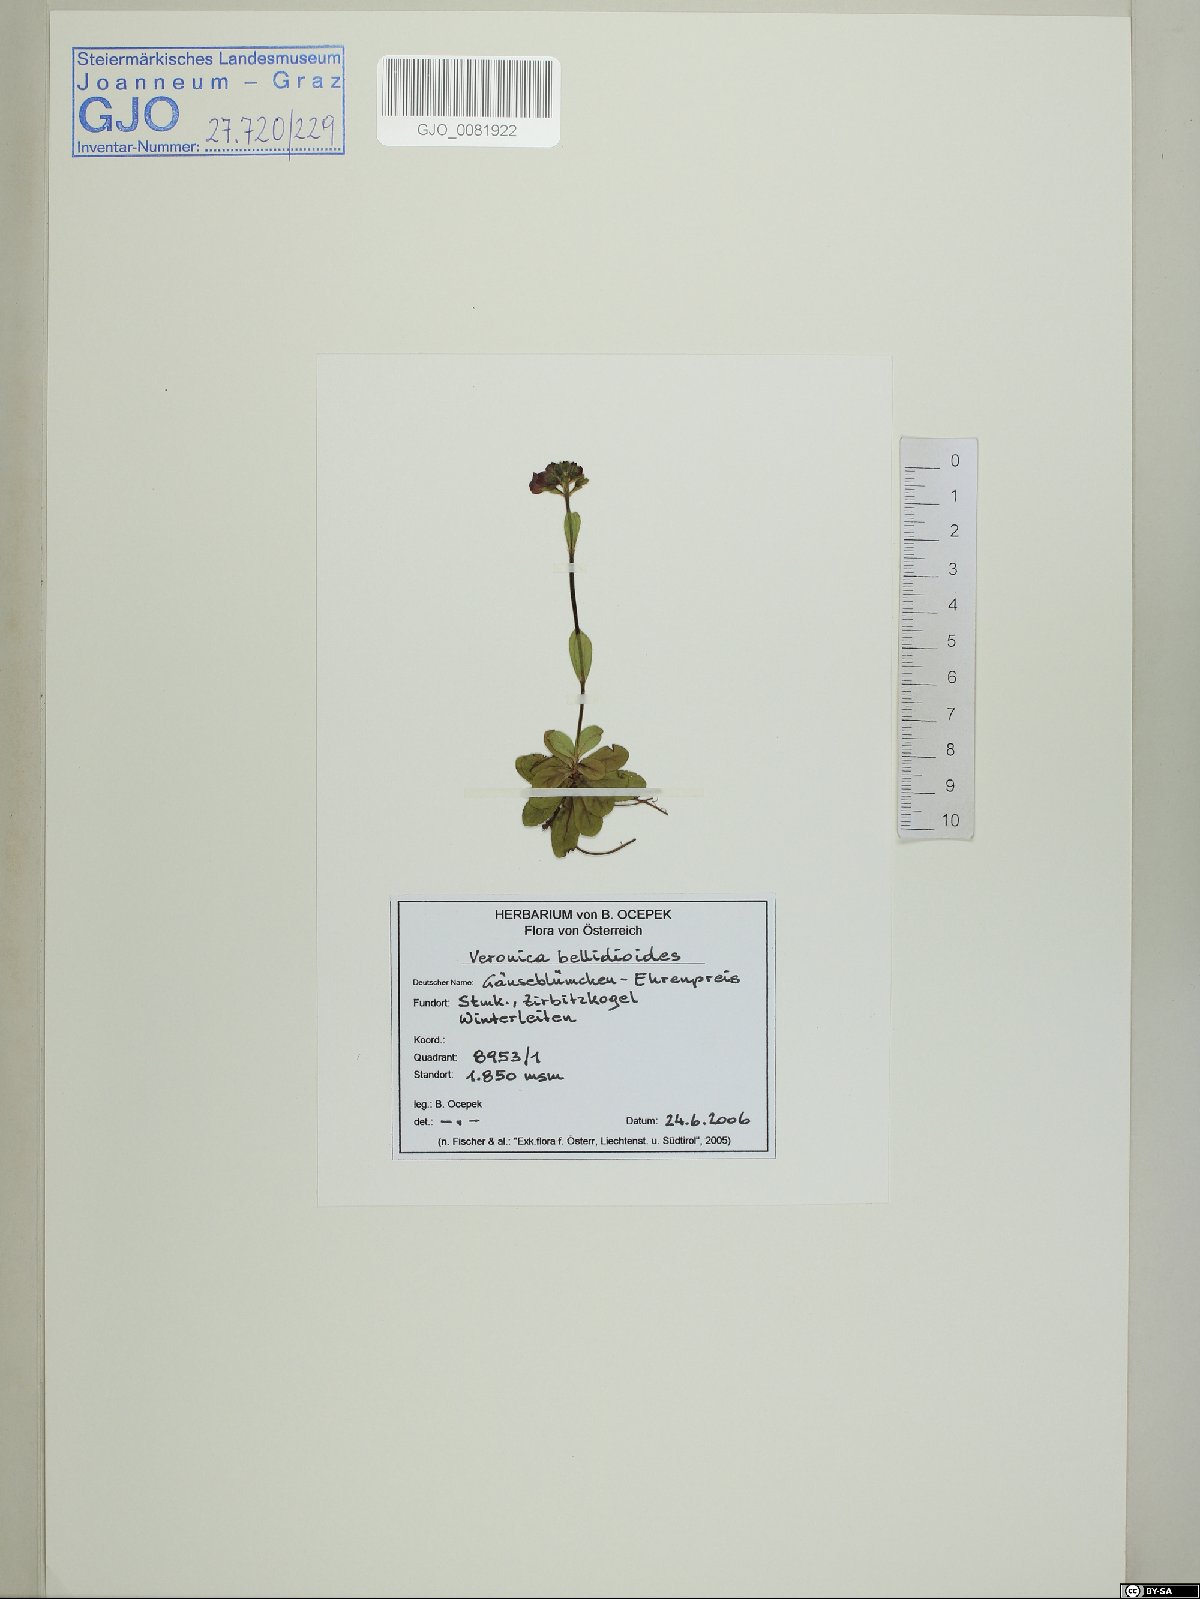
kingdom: Plantae
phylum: Tracheophyta
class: Magnoliopsida
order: Lamiales
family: Plantaginaceae
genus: Veronica
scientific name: Veronica bellidioides
